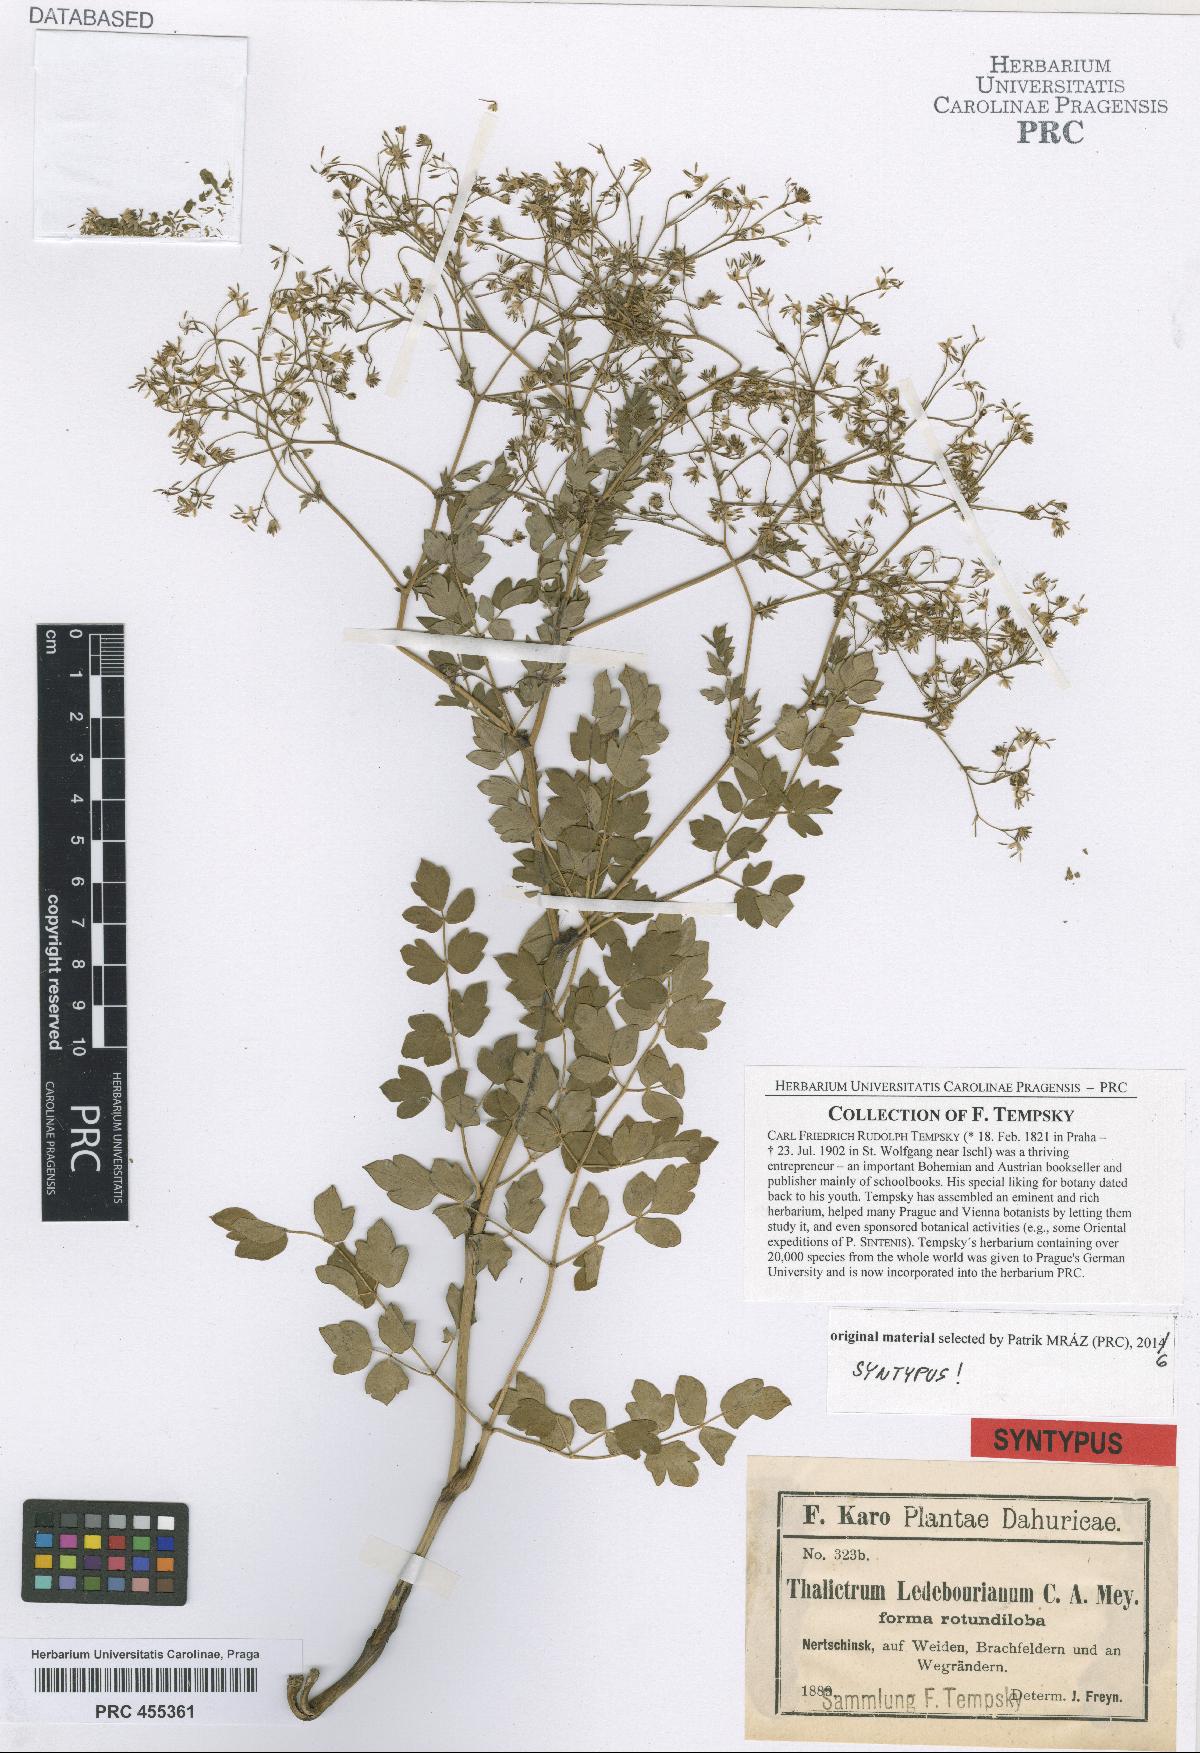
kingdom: Plantae
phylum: Tracheophyta
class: Magnoliopsida
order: Ranunculales
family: Ranunculaceae
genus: Thalictrum
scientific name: Thalictrum squarrosum
